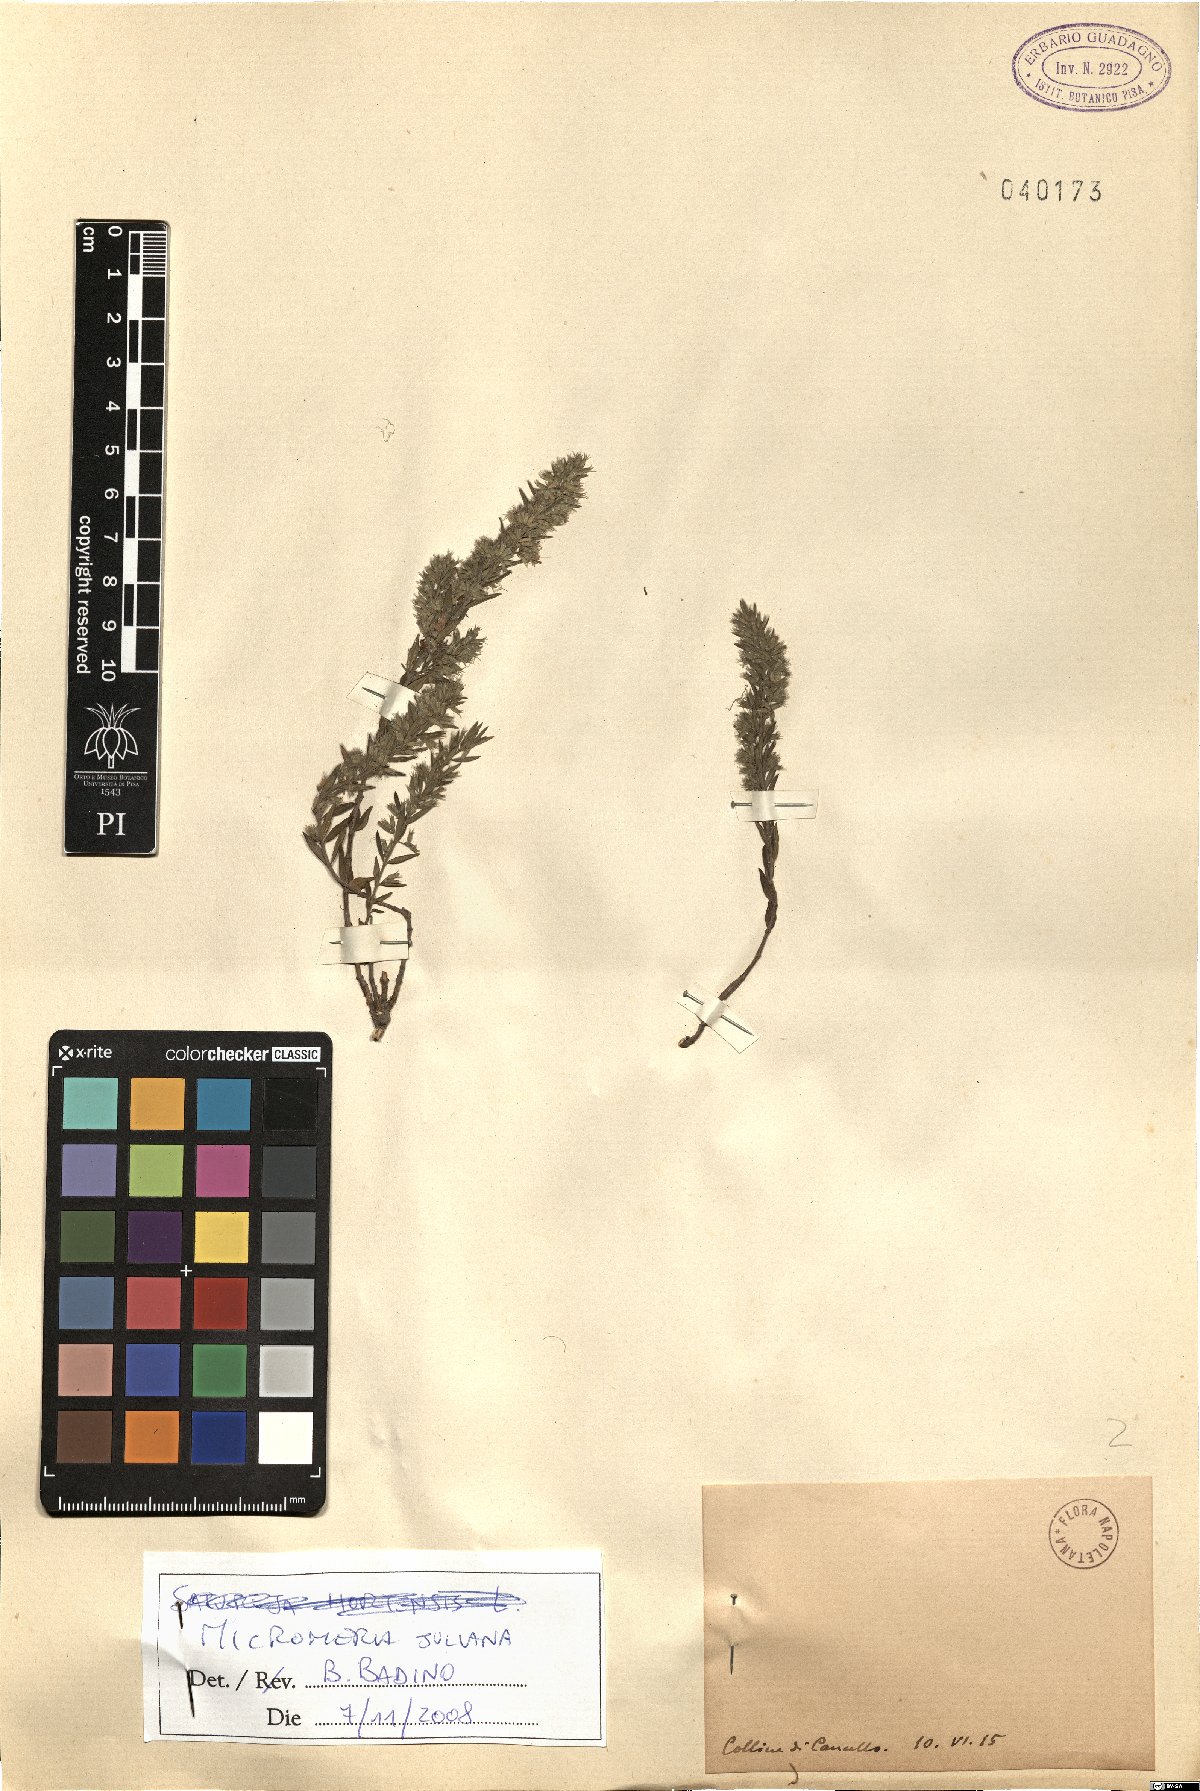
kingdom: Plantae
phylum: Tracheophyta
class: Magnoliopsida
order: Lamiales
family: Lamiaceae
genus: Micromeria
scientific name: Micromeria juliana
